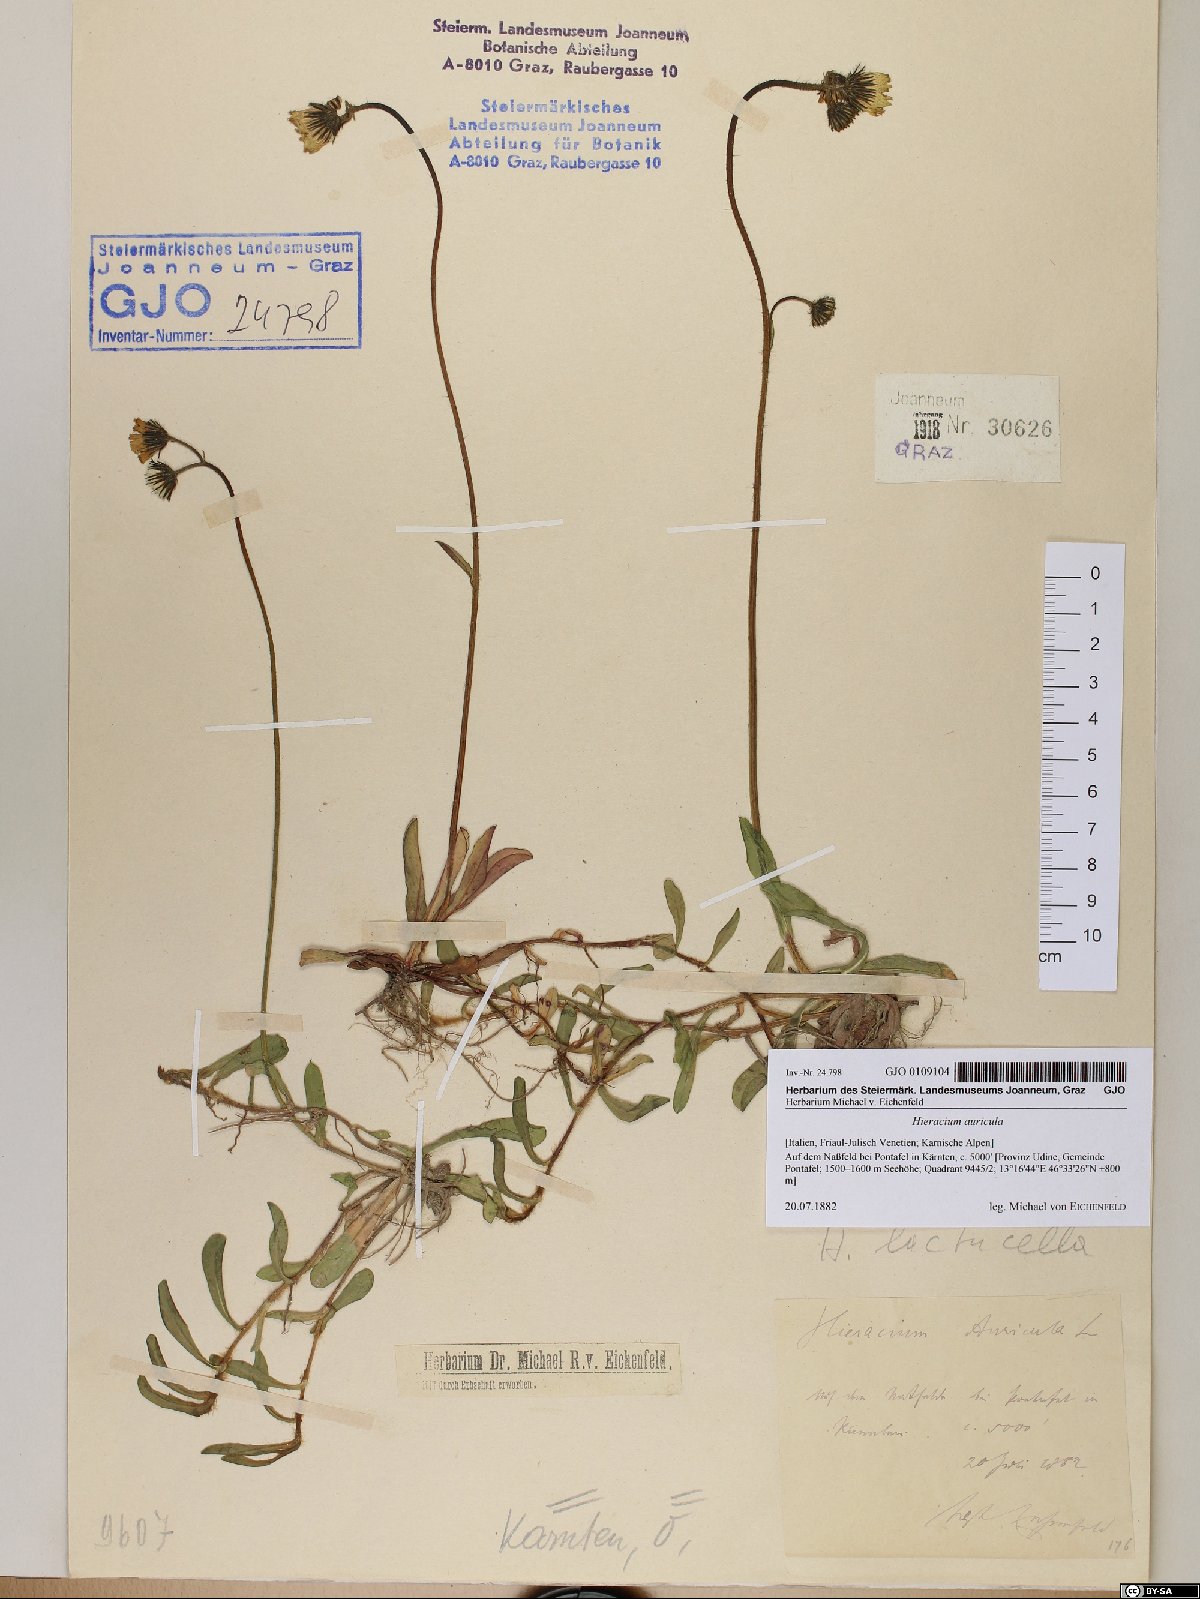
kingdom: Plantae
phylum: Tracheophyta
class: Magnoliopsida
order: Asterales
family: Asteraceae
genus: Hieracium
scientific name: Hieracium auricula
